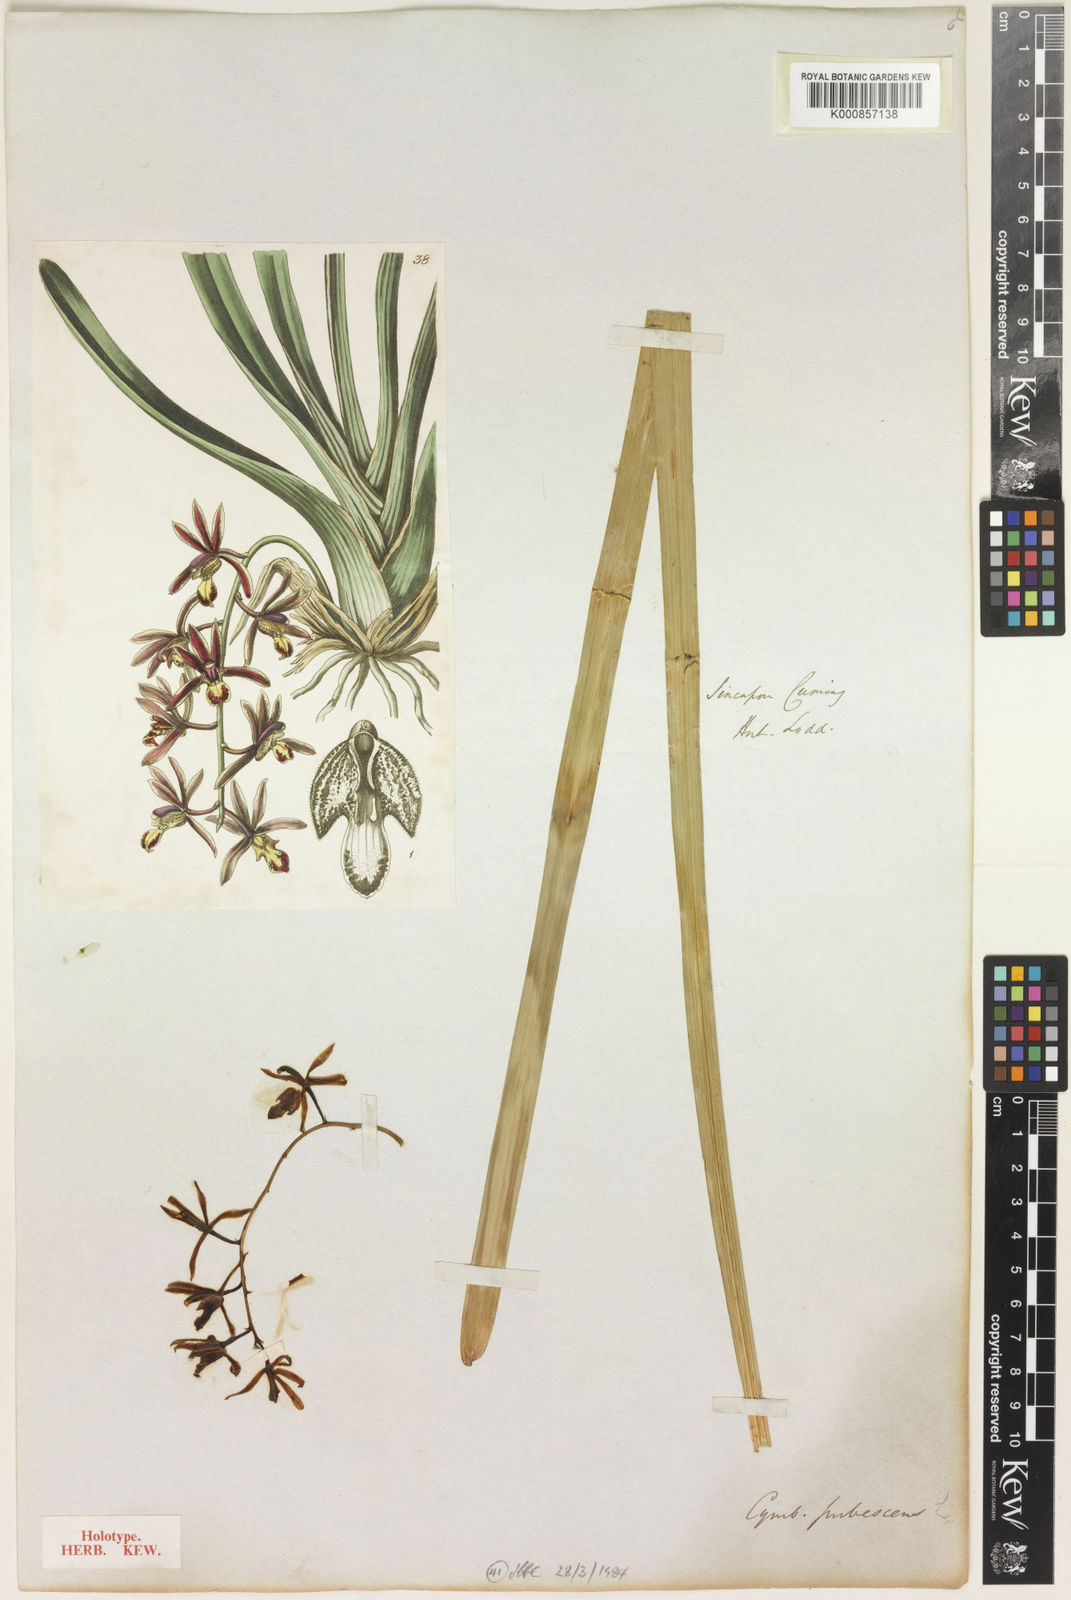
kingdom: Plantae
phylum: Tracheophyta
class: Liliopsida
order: Asparagales
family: Orchidaceae
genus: Cymbidium
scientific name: Cymbidium bicolor
